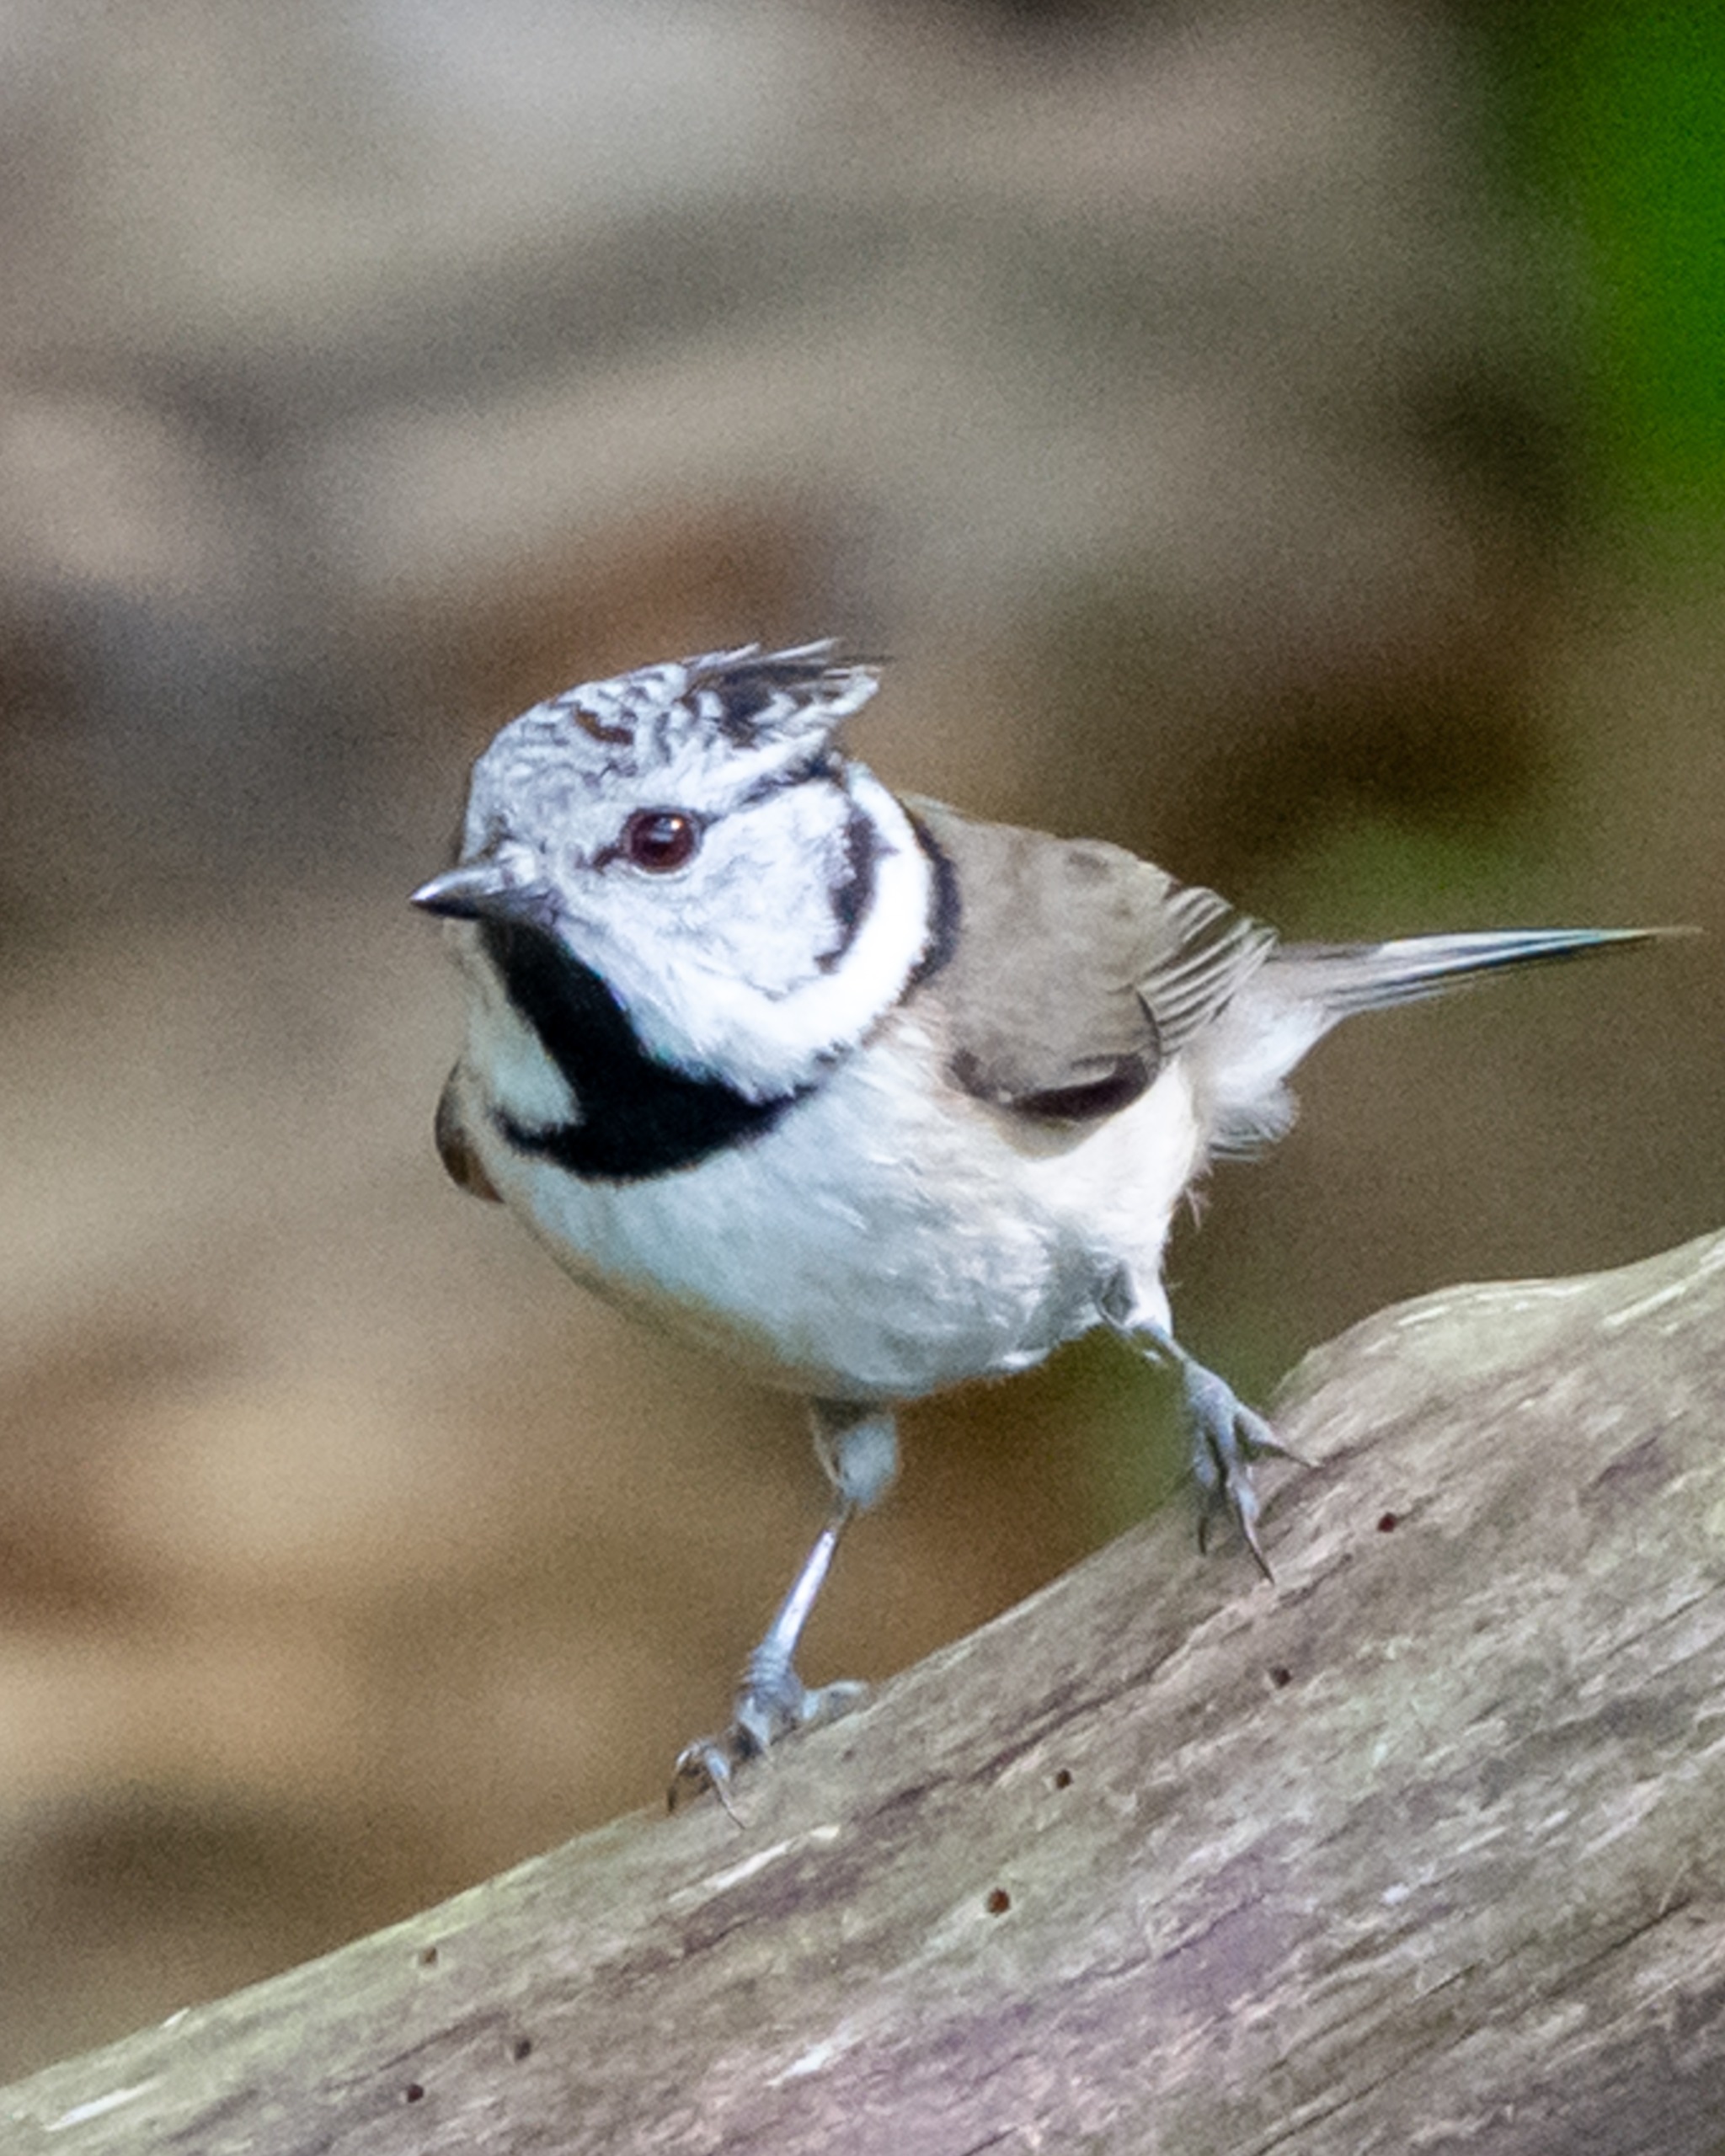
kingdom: Animalia
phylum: Chordata
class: Aves
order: Passeriformes
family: Paridae
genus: Lophophanes
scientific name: Lophophanes cristatus
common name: Topmejse
